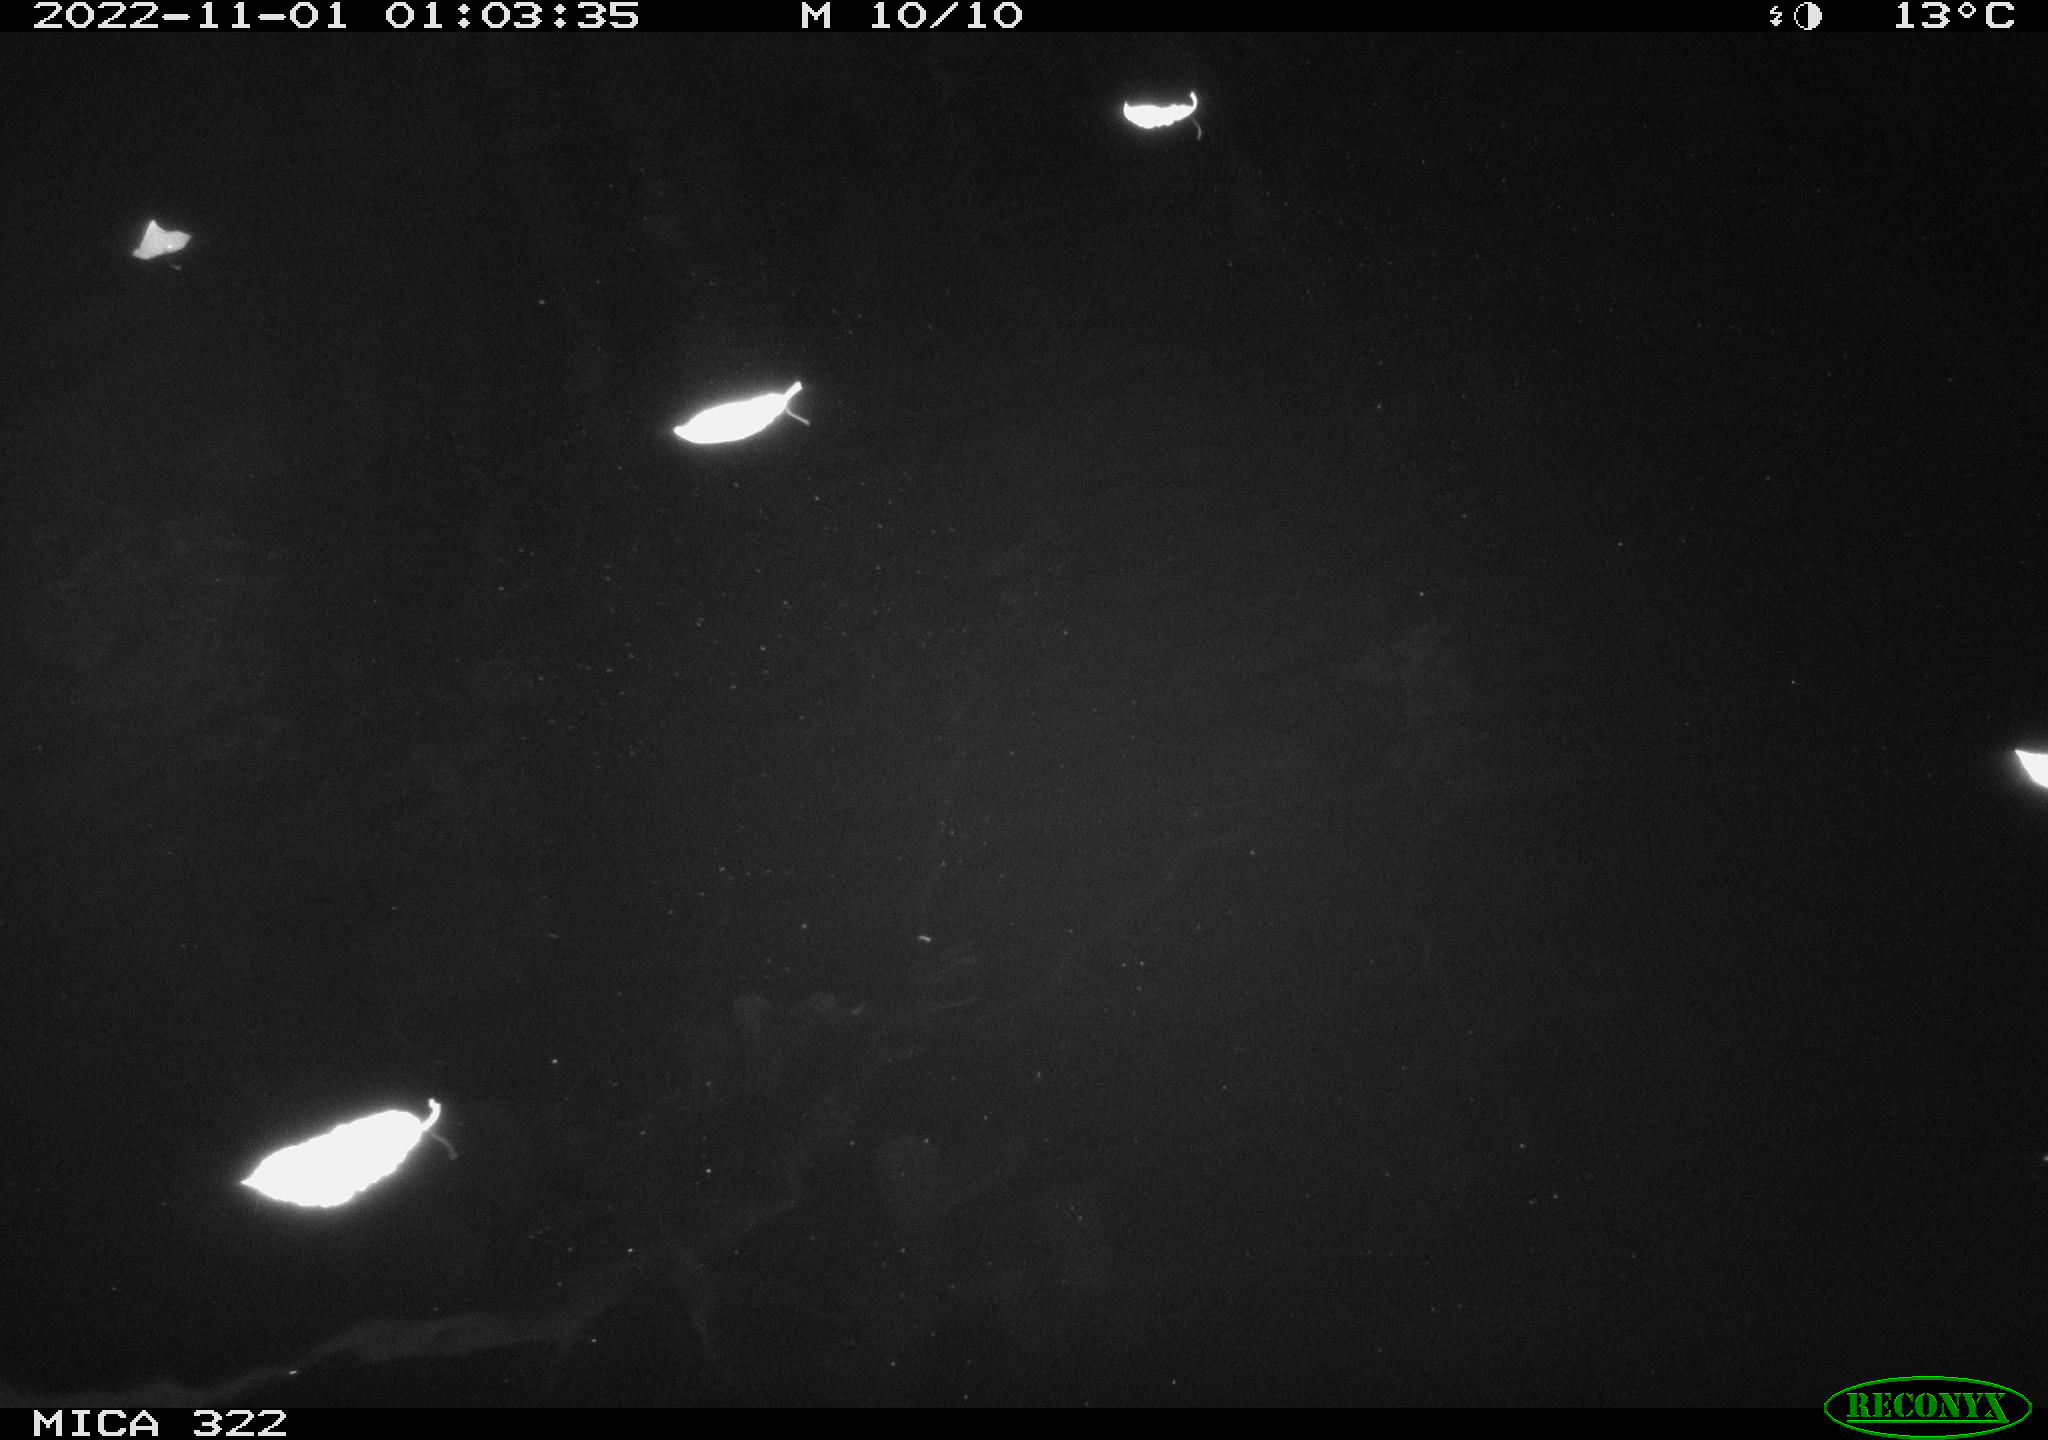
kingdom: Animalia
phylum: Chordata
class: Mammalia
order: Rodentia
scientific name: Rodentia
